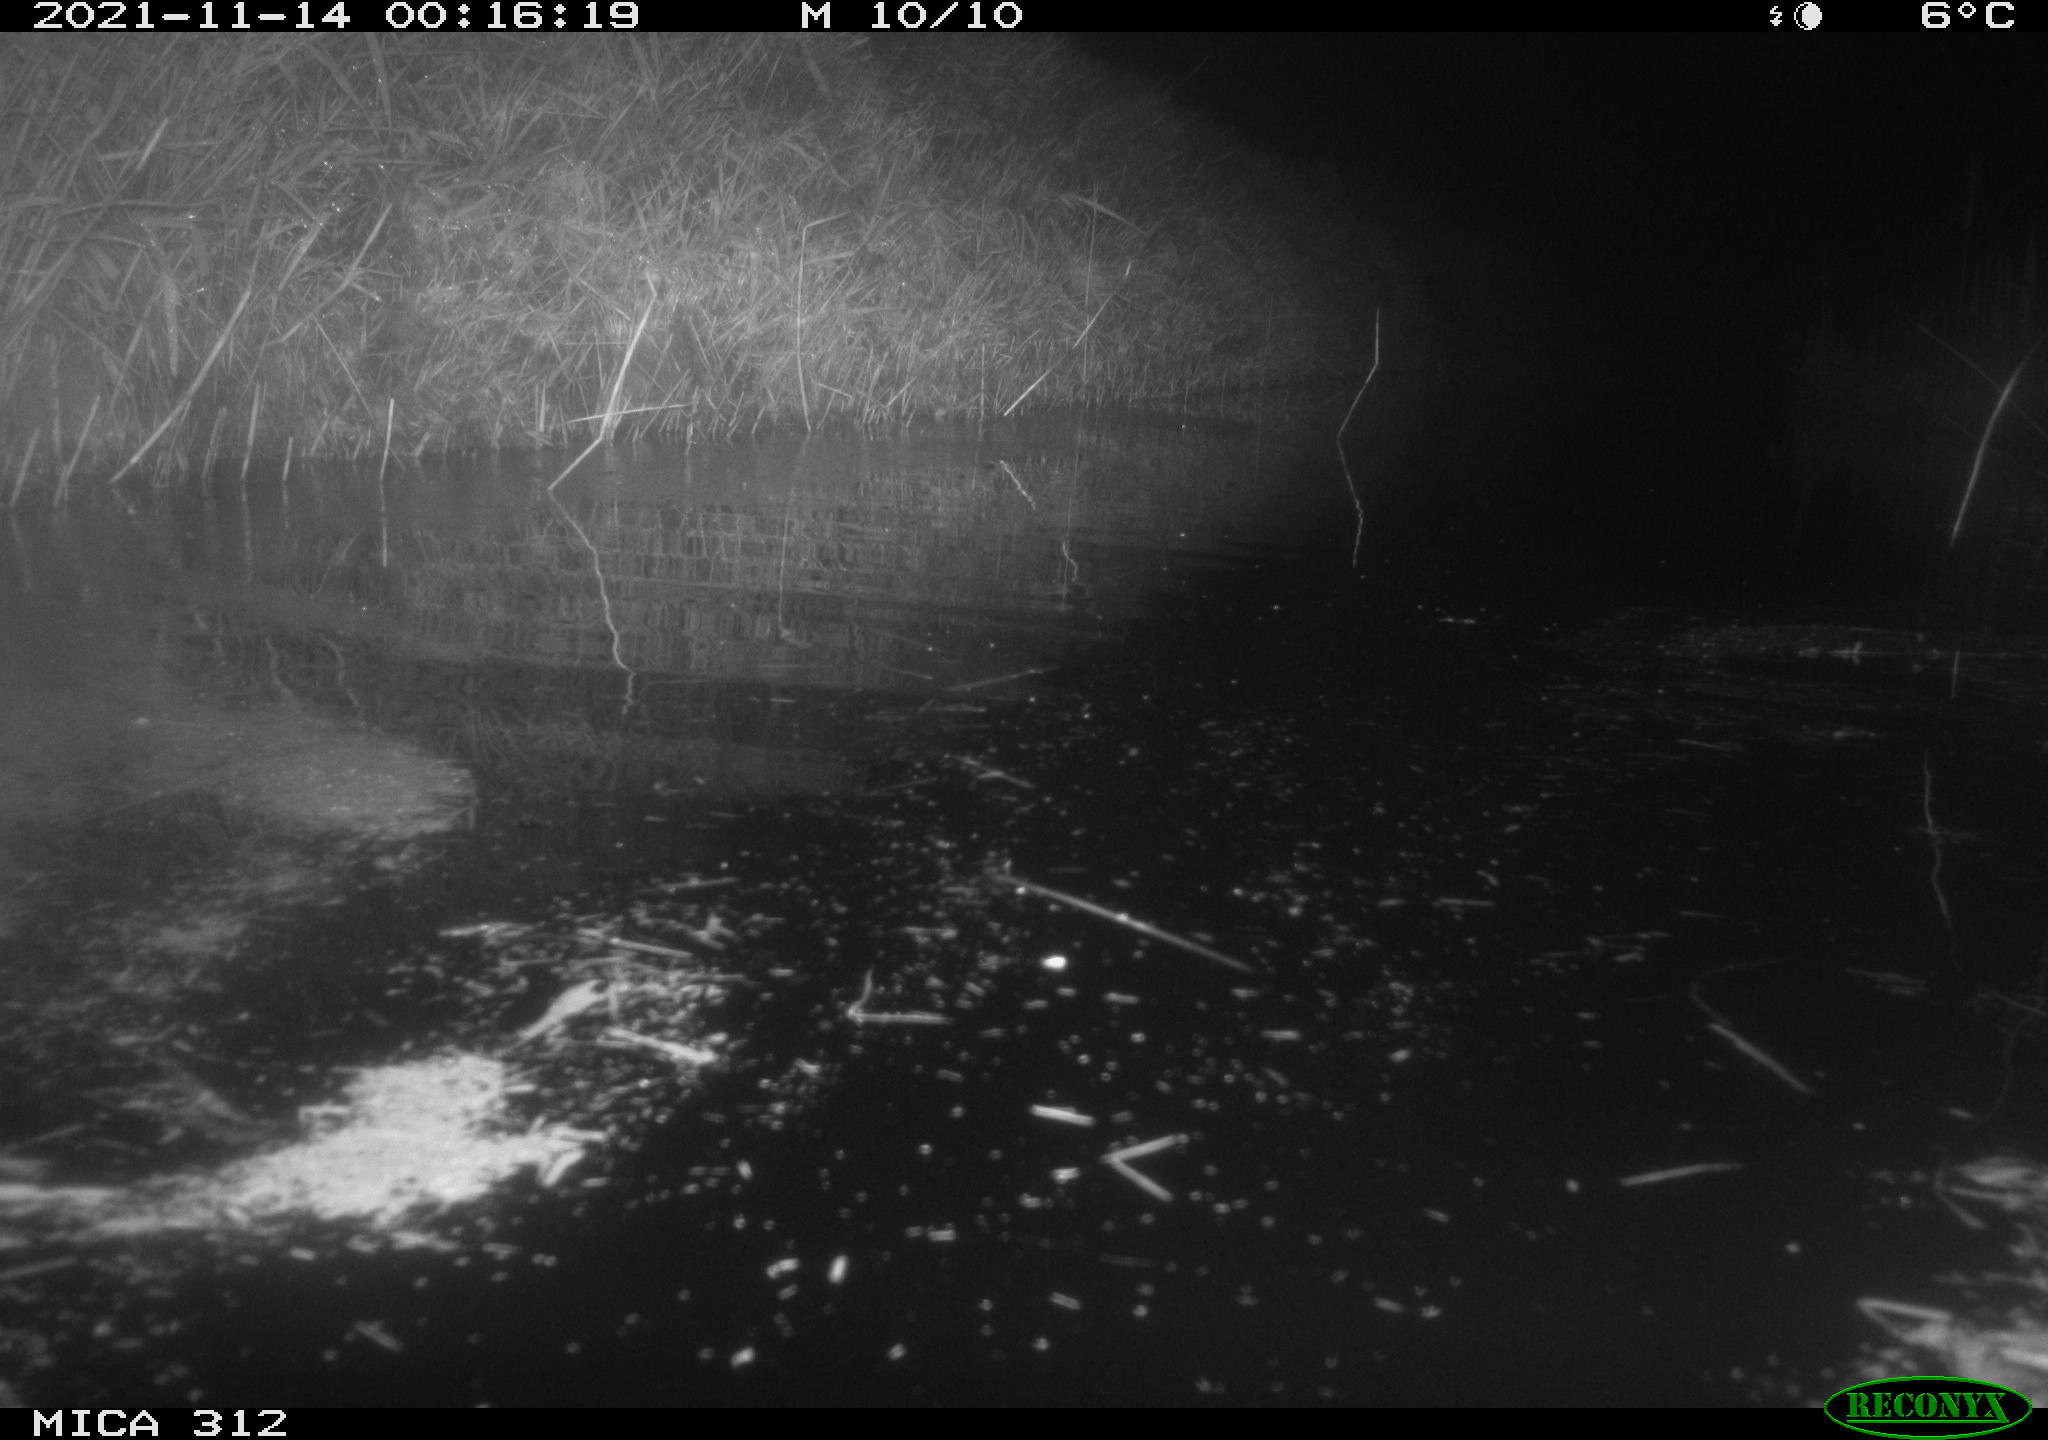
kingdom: Animalia
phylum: Chordata
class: Mammalia
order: Rodentia
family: Muridae
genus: Rattus
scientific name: Rattus norvegicus
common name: Brown rat
